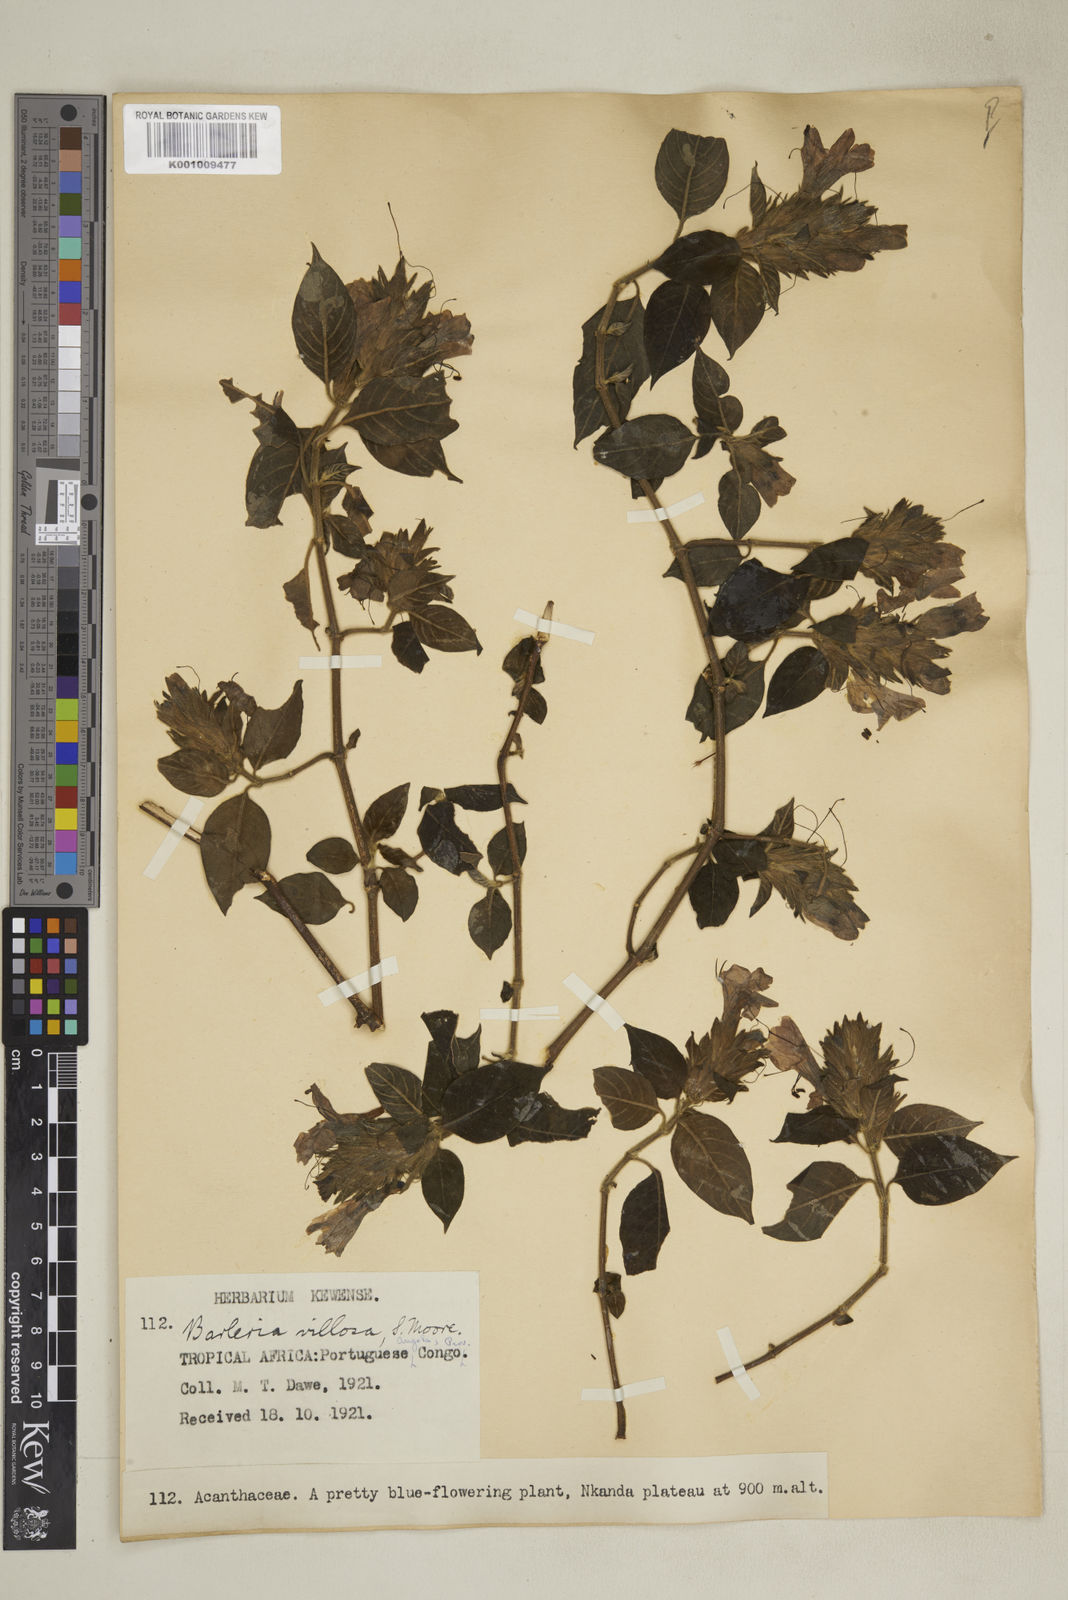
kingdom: Plantae
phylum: Tracheophyta
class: Magnoliopsida
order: Lamiales
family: Acanthaceae
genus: Barleria
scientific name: Barleria villosa
